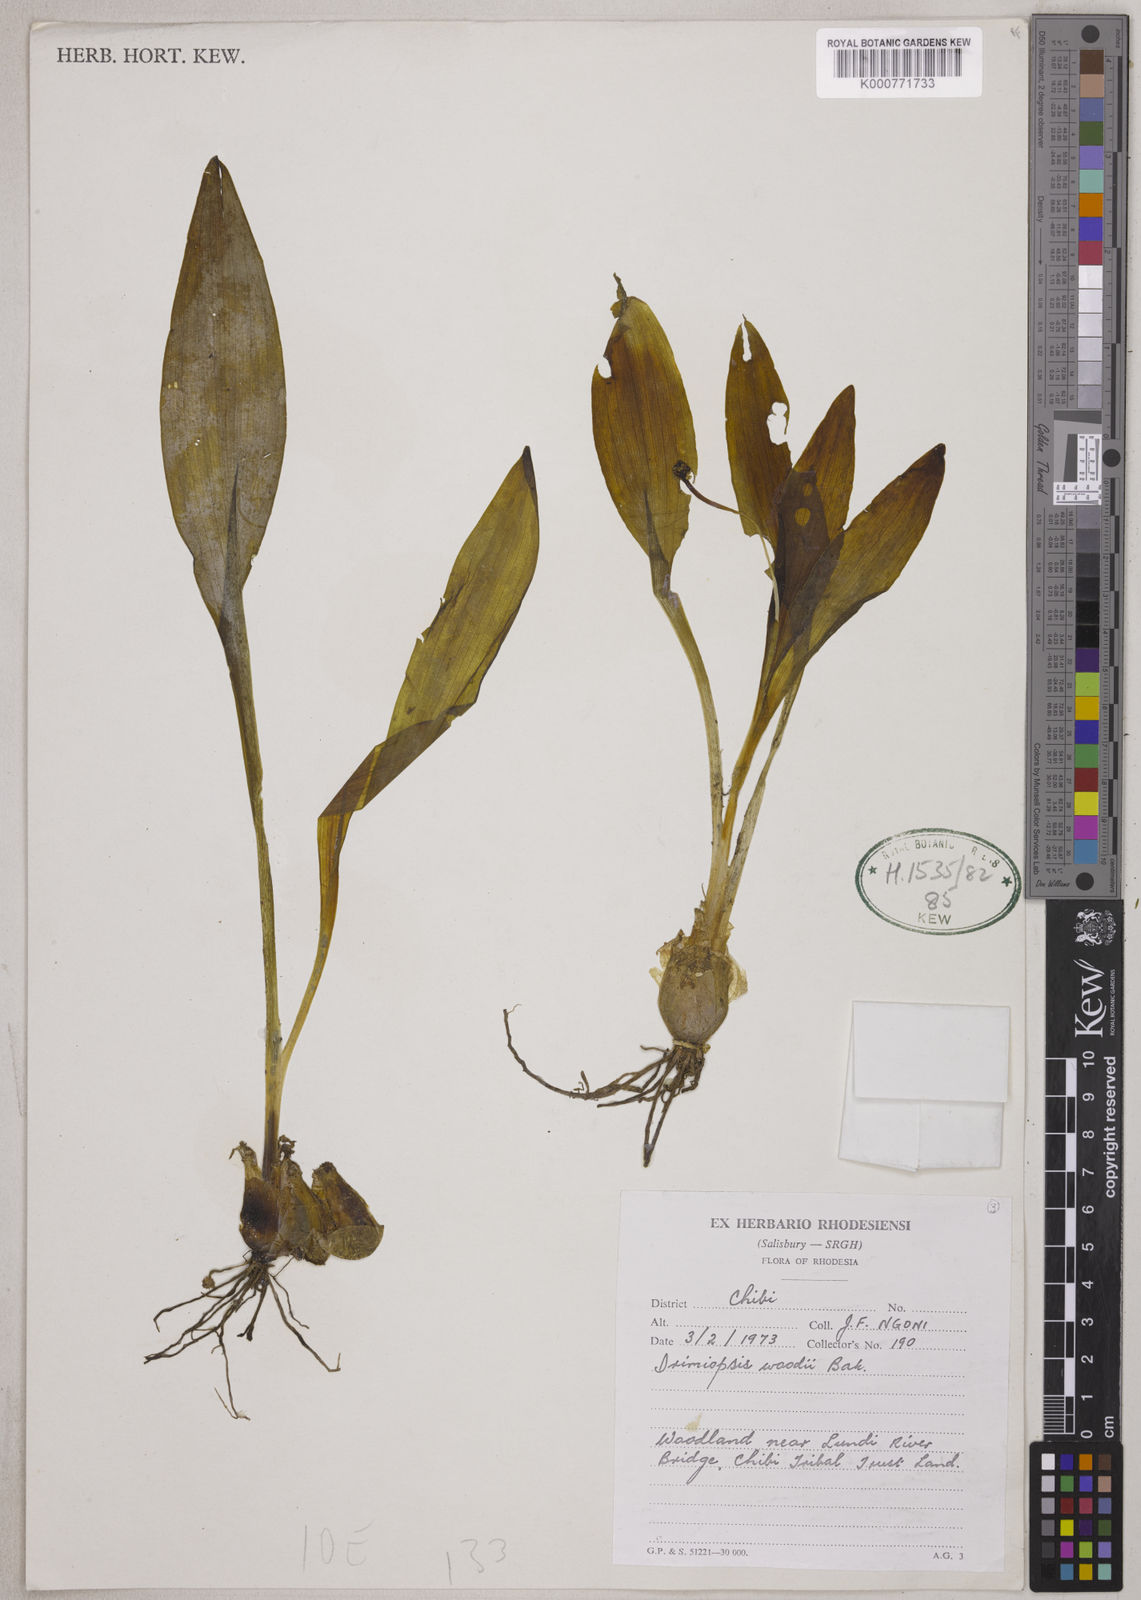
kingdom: Plantae
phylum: Tracheophyta
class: Liliopsida
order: Asparagales
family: Asparagaceae
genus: Drimiopsis
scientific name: Drimiopsis burkei
